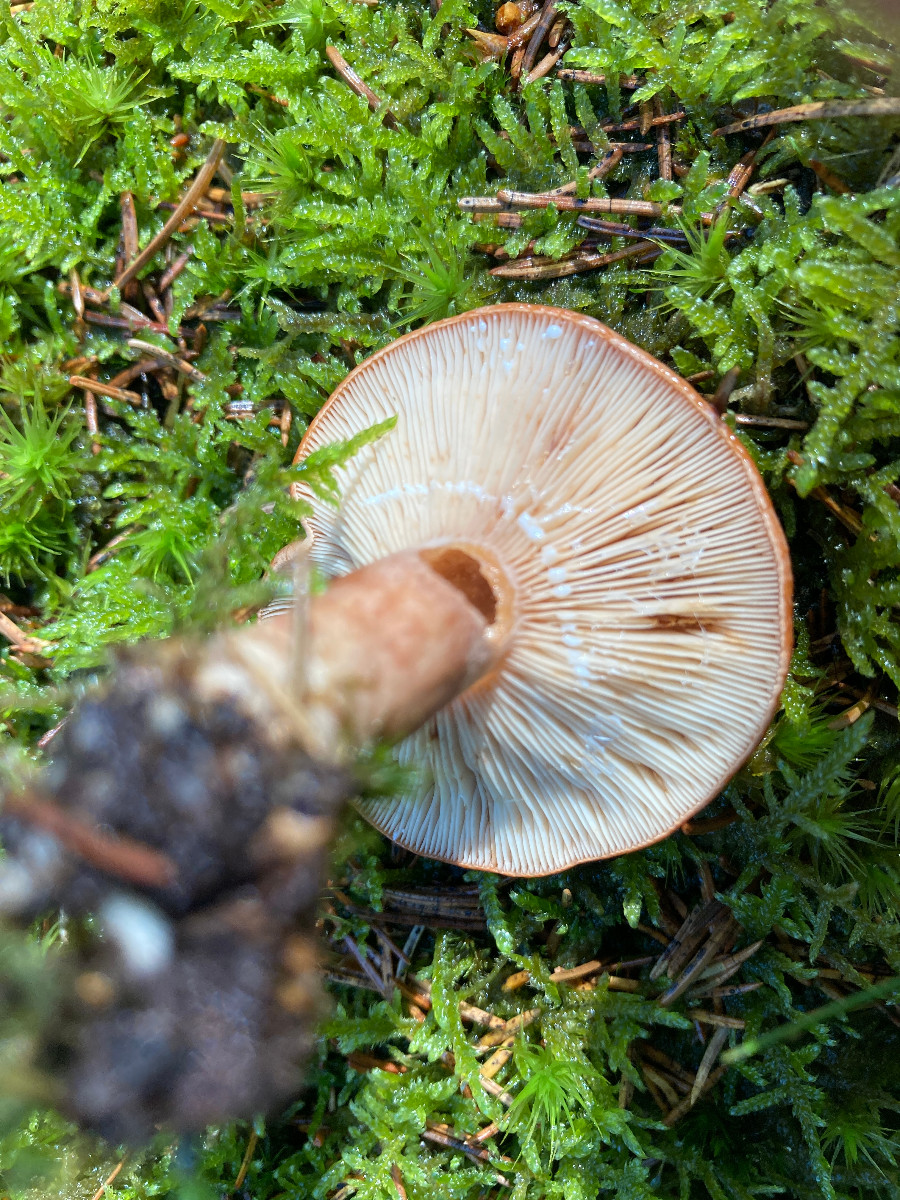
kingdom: Fungi
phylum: Basidiomycota
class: Agaricomycetes
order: Russulales
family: Russulaceae
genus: Lactarius
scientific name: Lactarius rufus
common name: rødbrun mælkehat
